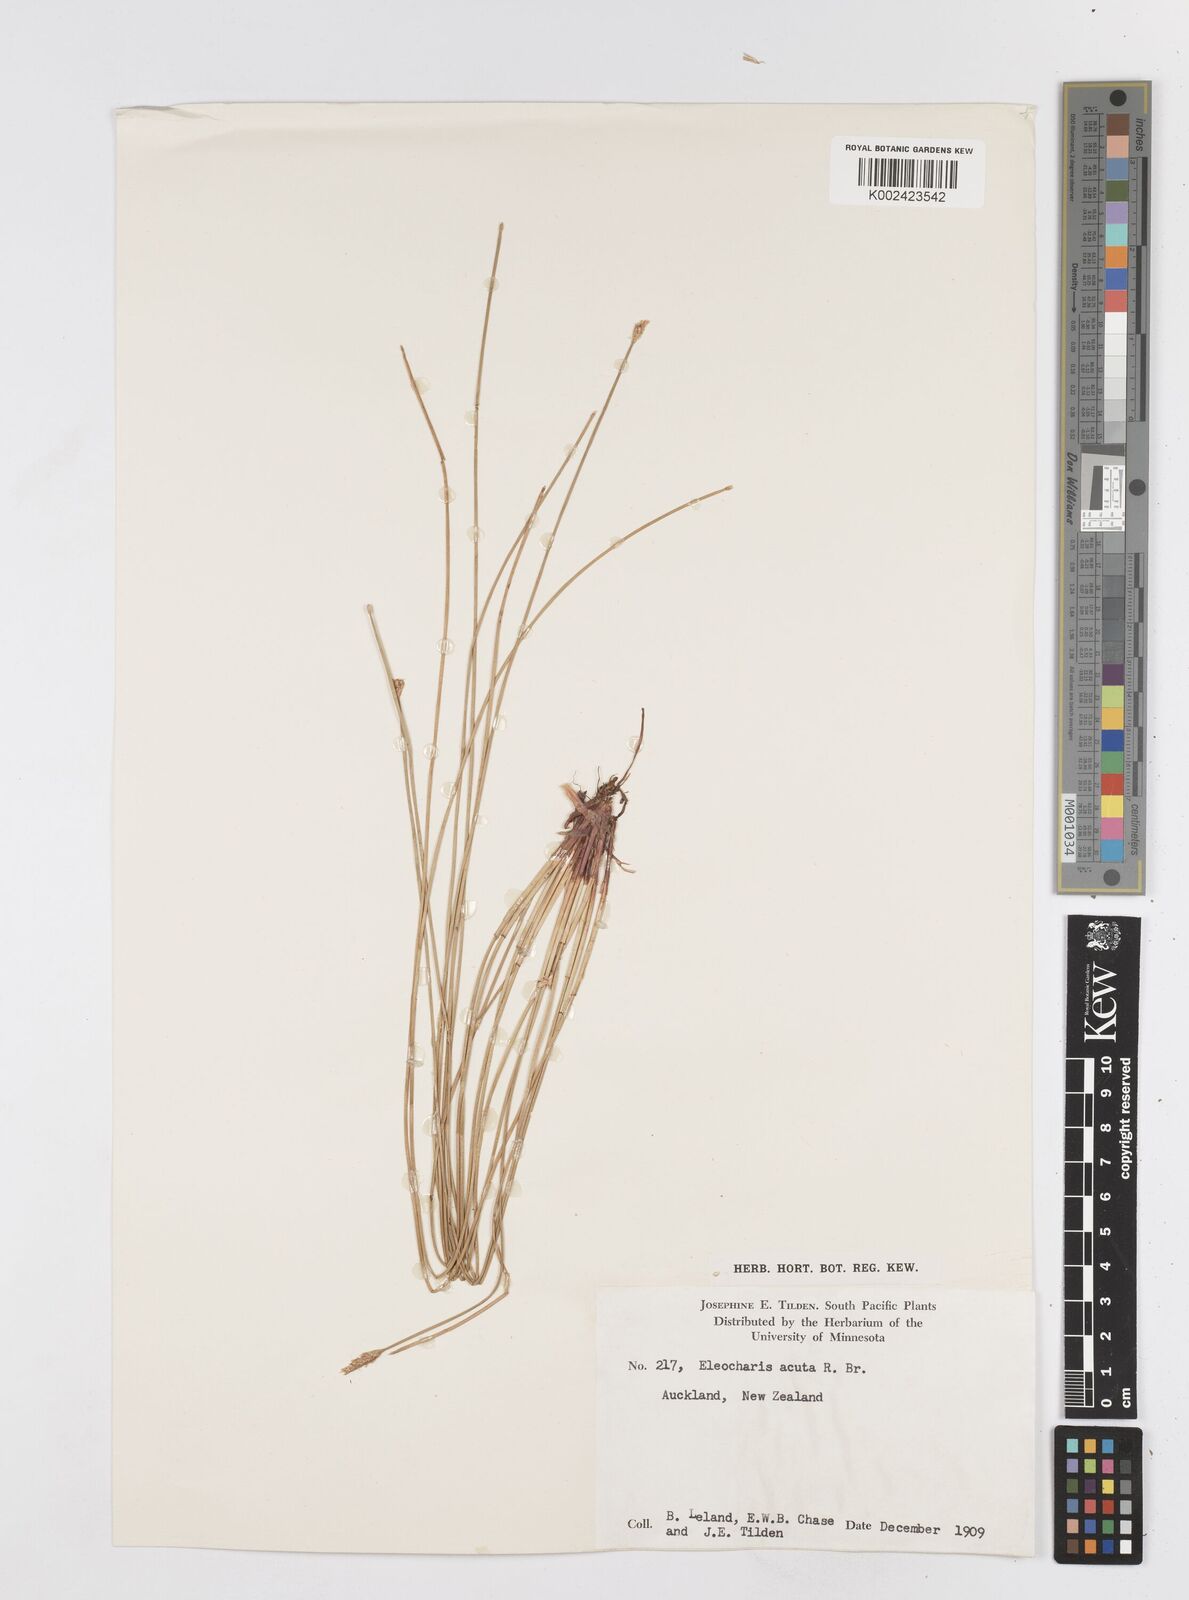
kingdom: Plantae
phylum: Tracheophyta
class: Liliopsida
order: Poales
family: Cyperaceae
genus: Eleocharis
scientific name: Eleocharis acuta
